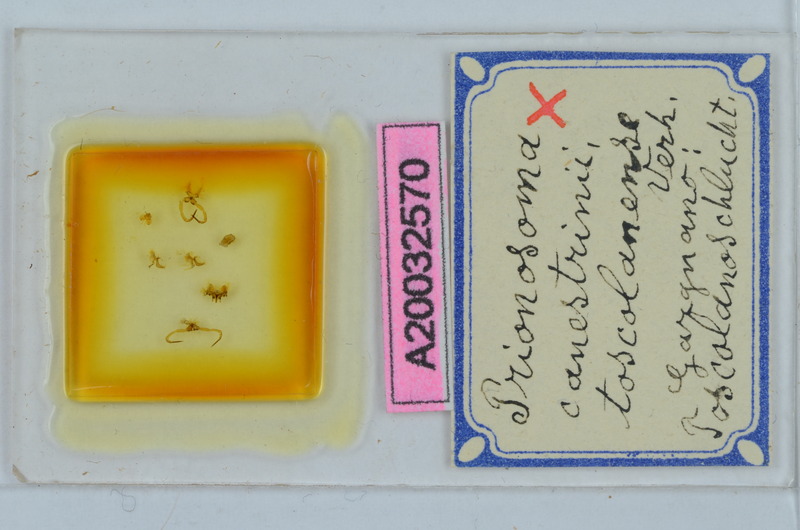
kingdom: Animalia
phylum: Arthropoda
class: Diplopoda
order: Chordeumatida
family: Craspedosomatidae
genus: Prionosoma
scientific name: Prionosoma canestrinii
